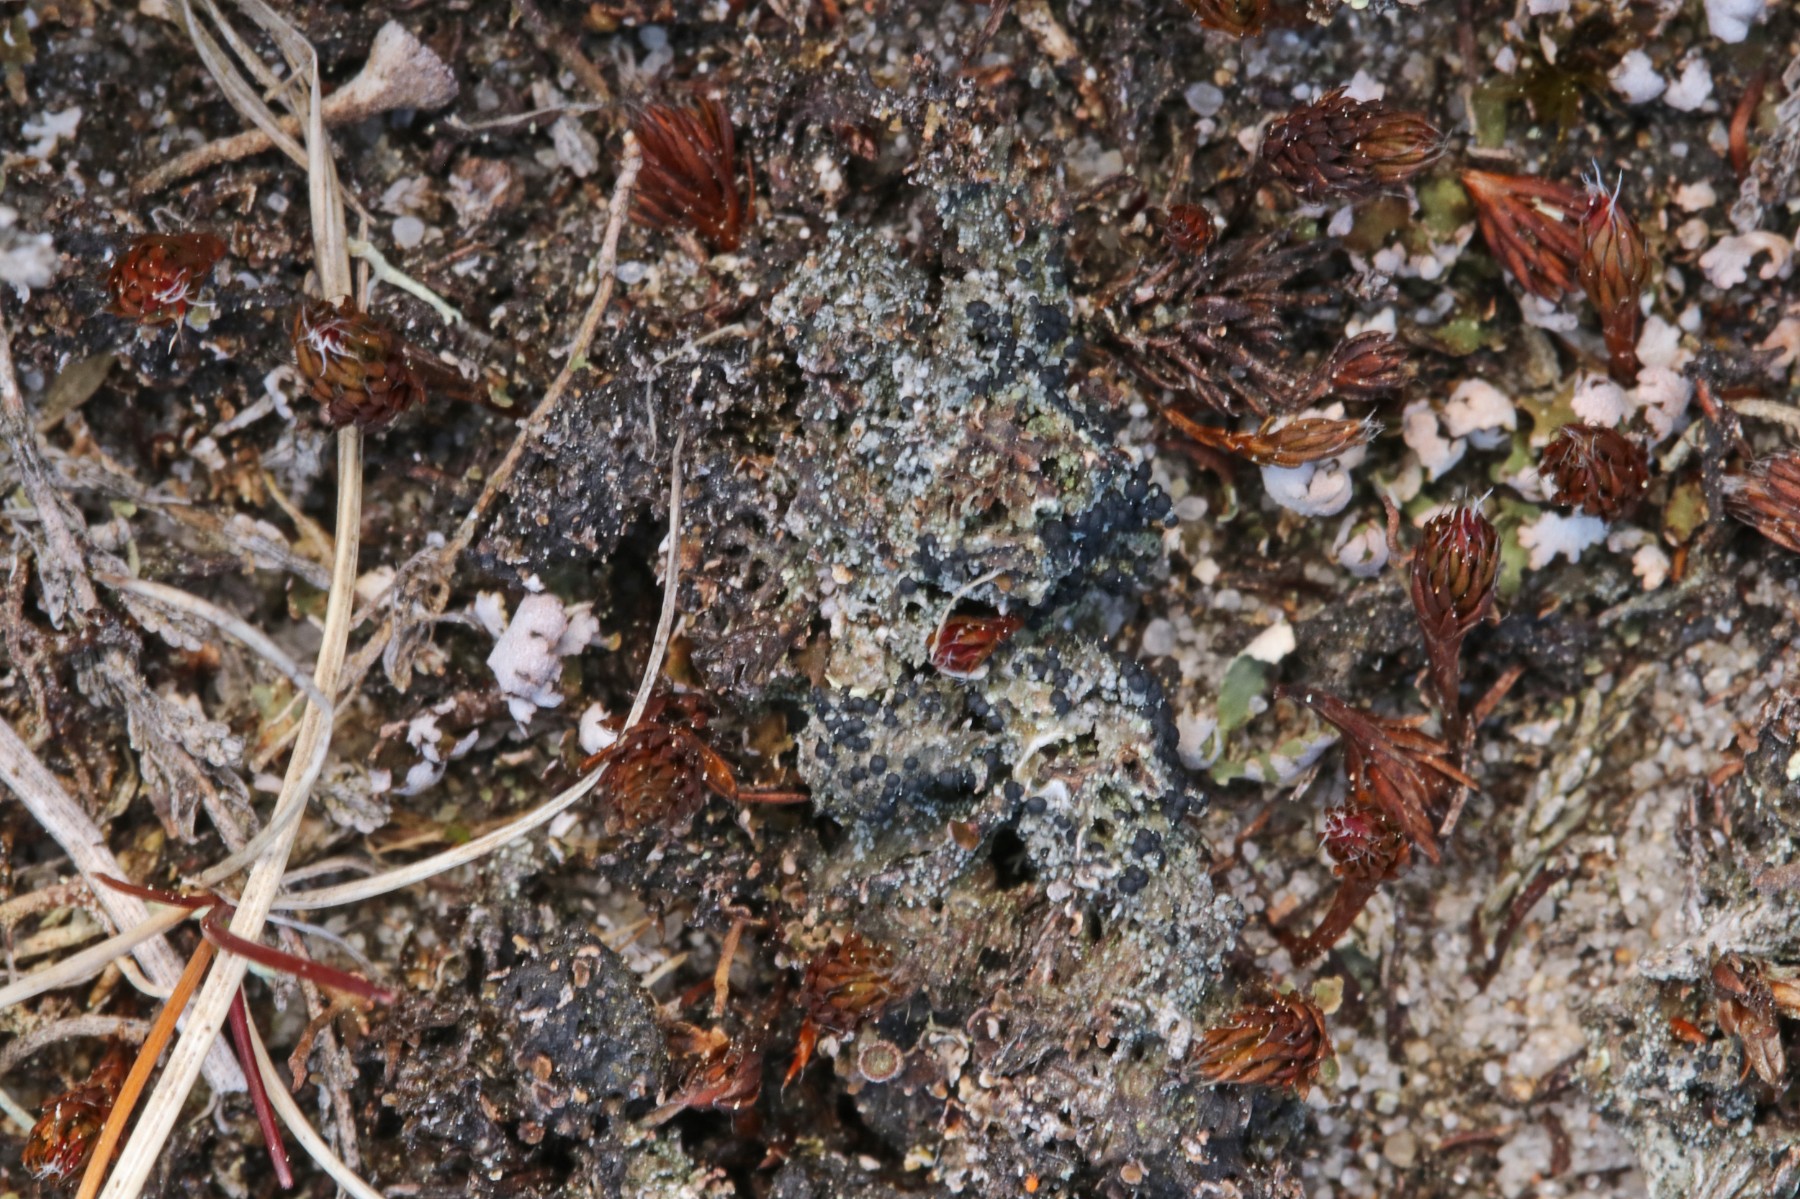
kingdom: Fungi
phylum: Ascomycota
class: Lecanoromycetes
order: Lecanorales
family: Byssolomataceae
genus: Micarea
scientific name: Micarea lignaria
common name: tørve-knaplav
